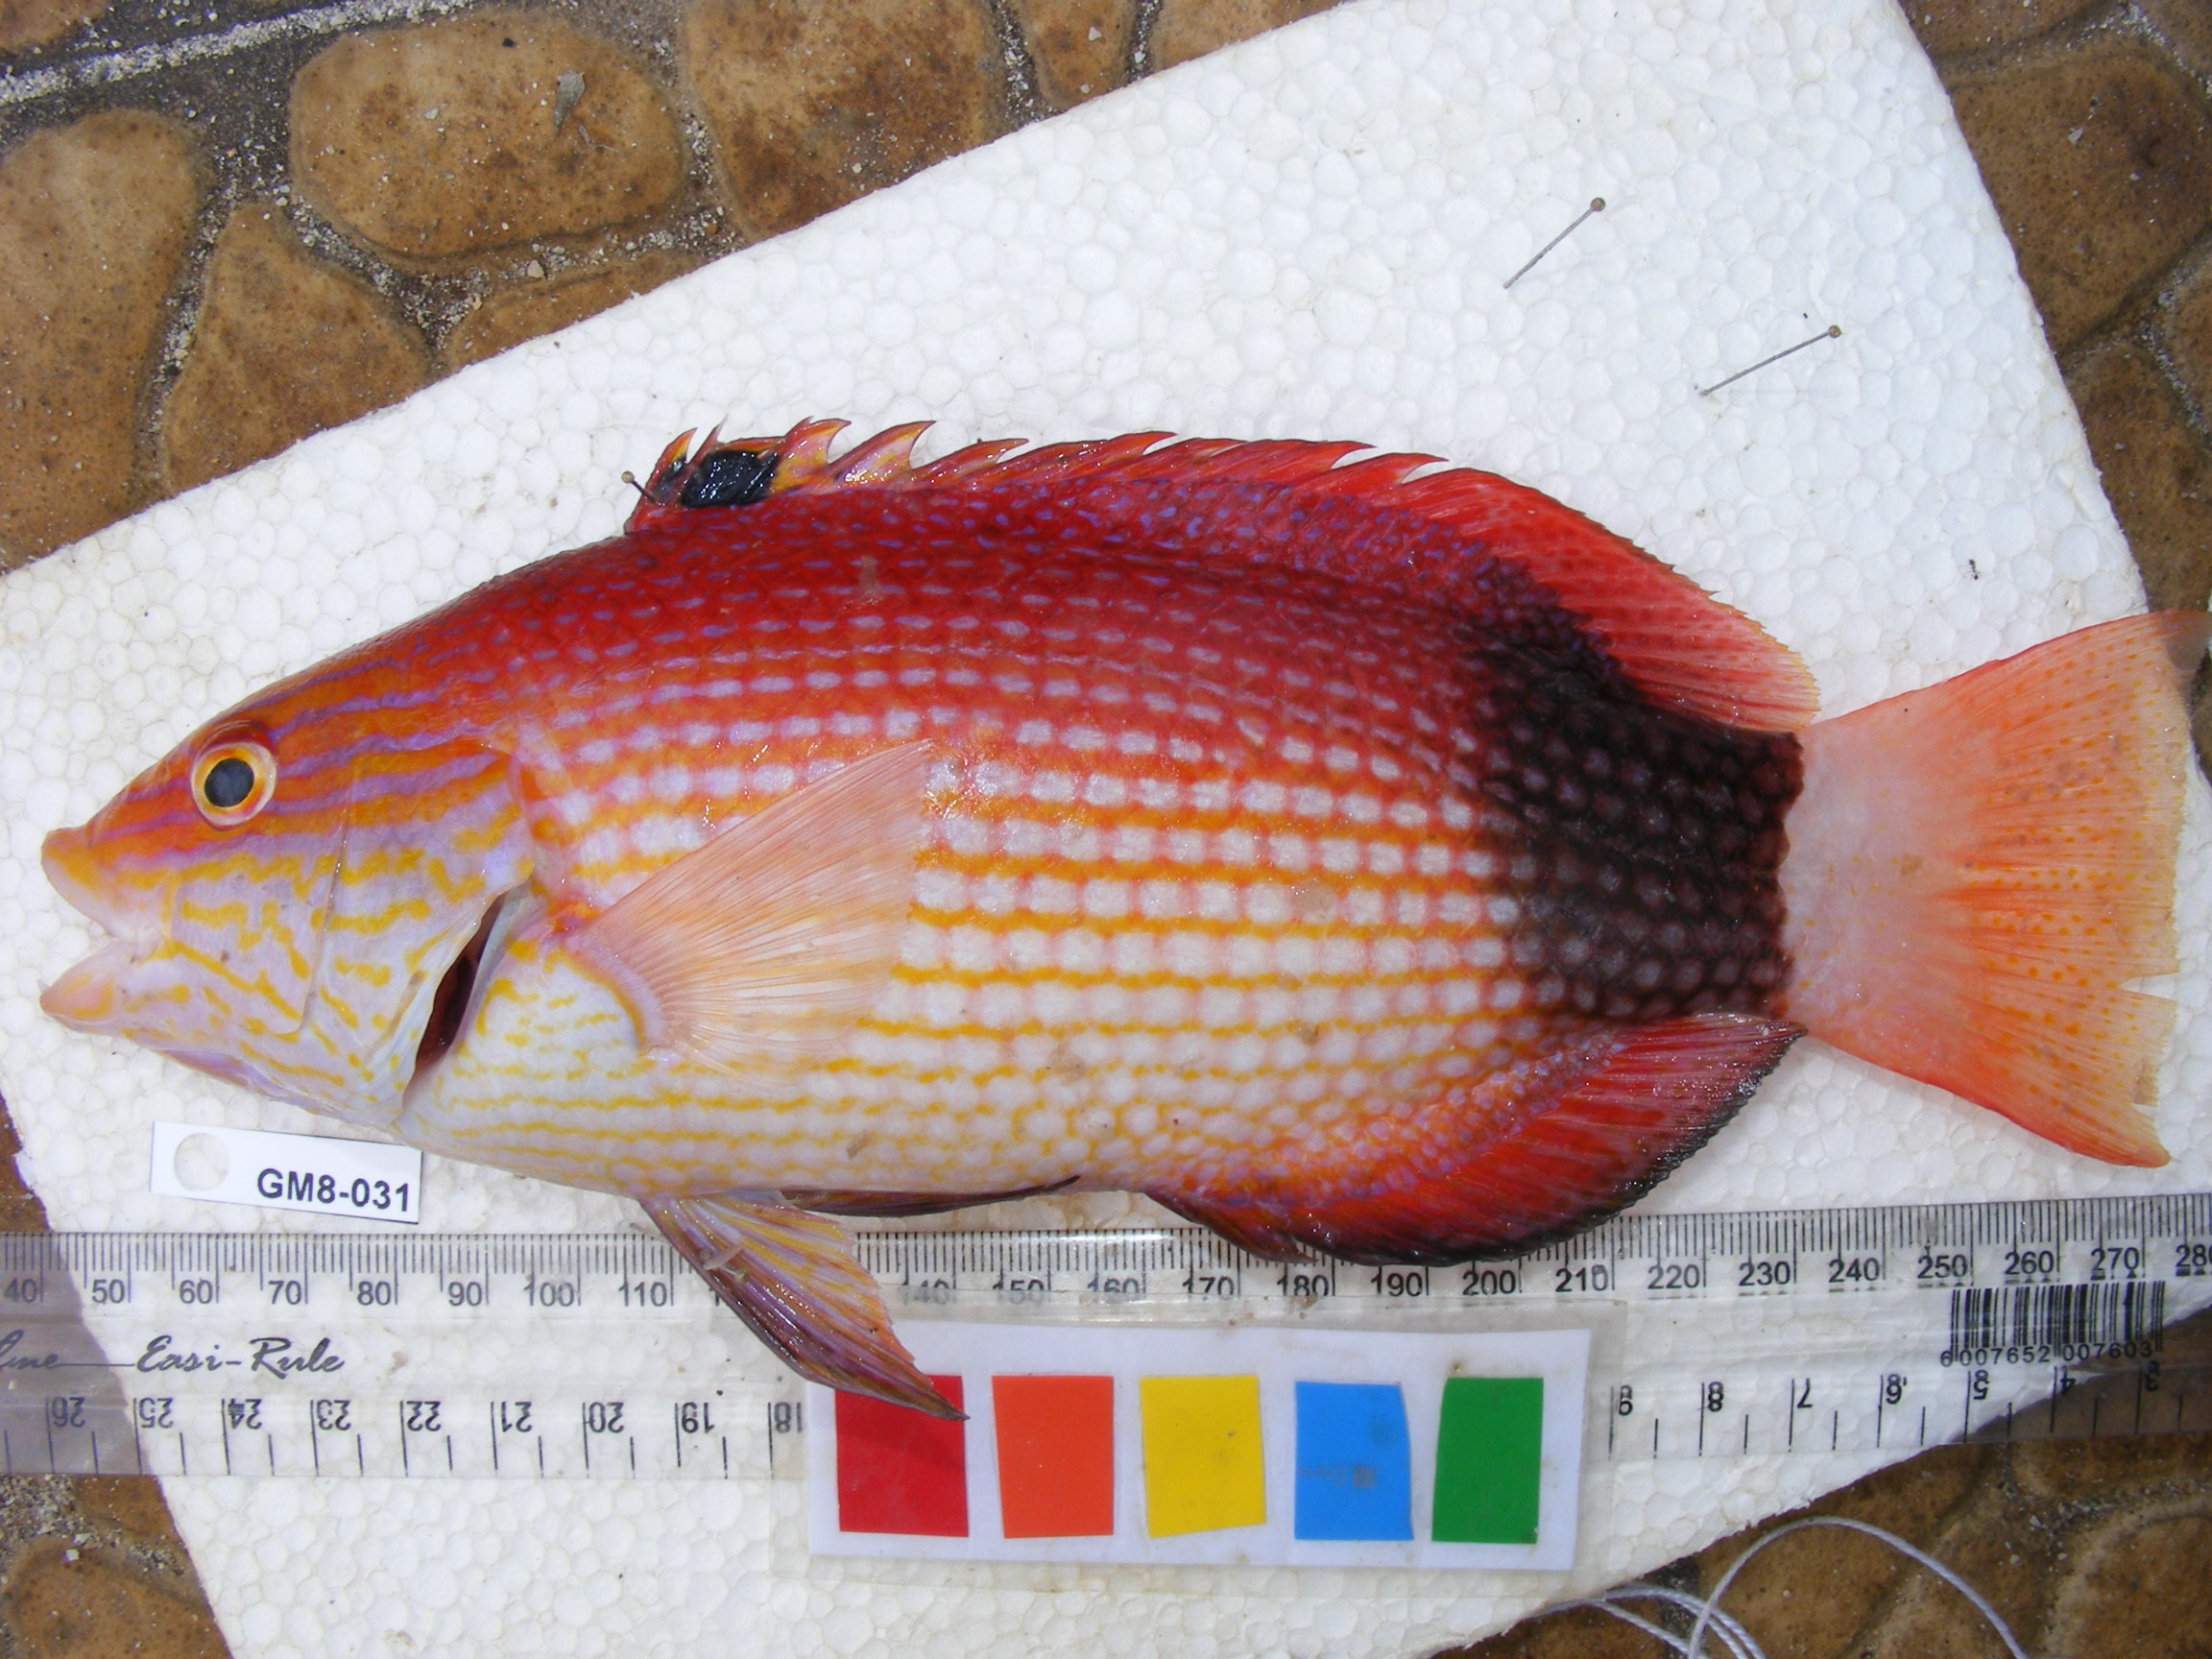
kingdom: Animalia
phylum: Chordata
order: Perciformes
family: Labridae
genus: Bodianus
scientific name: Bodianus bilunulatus
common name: Tarry hogfish
